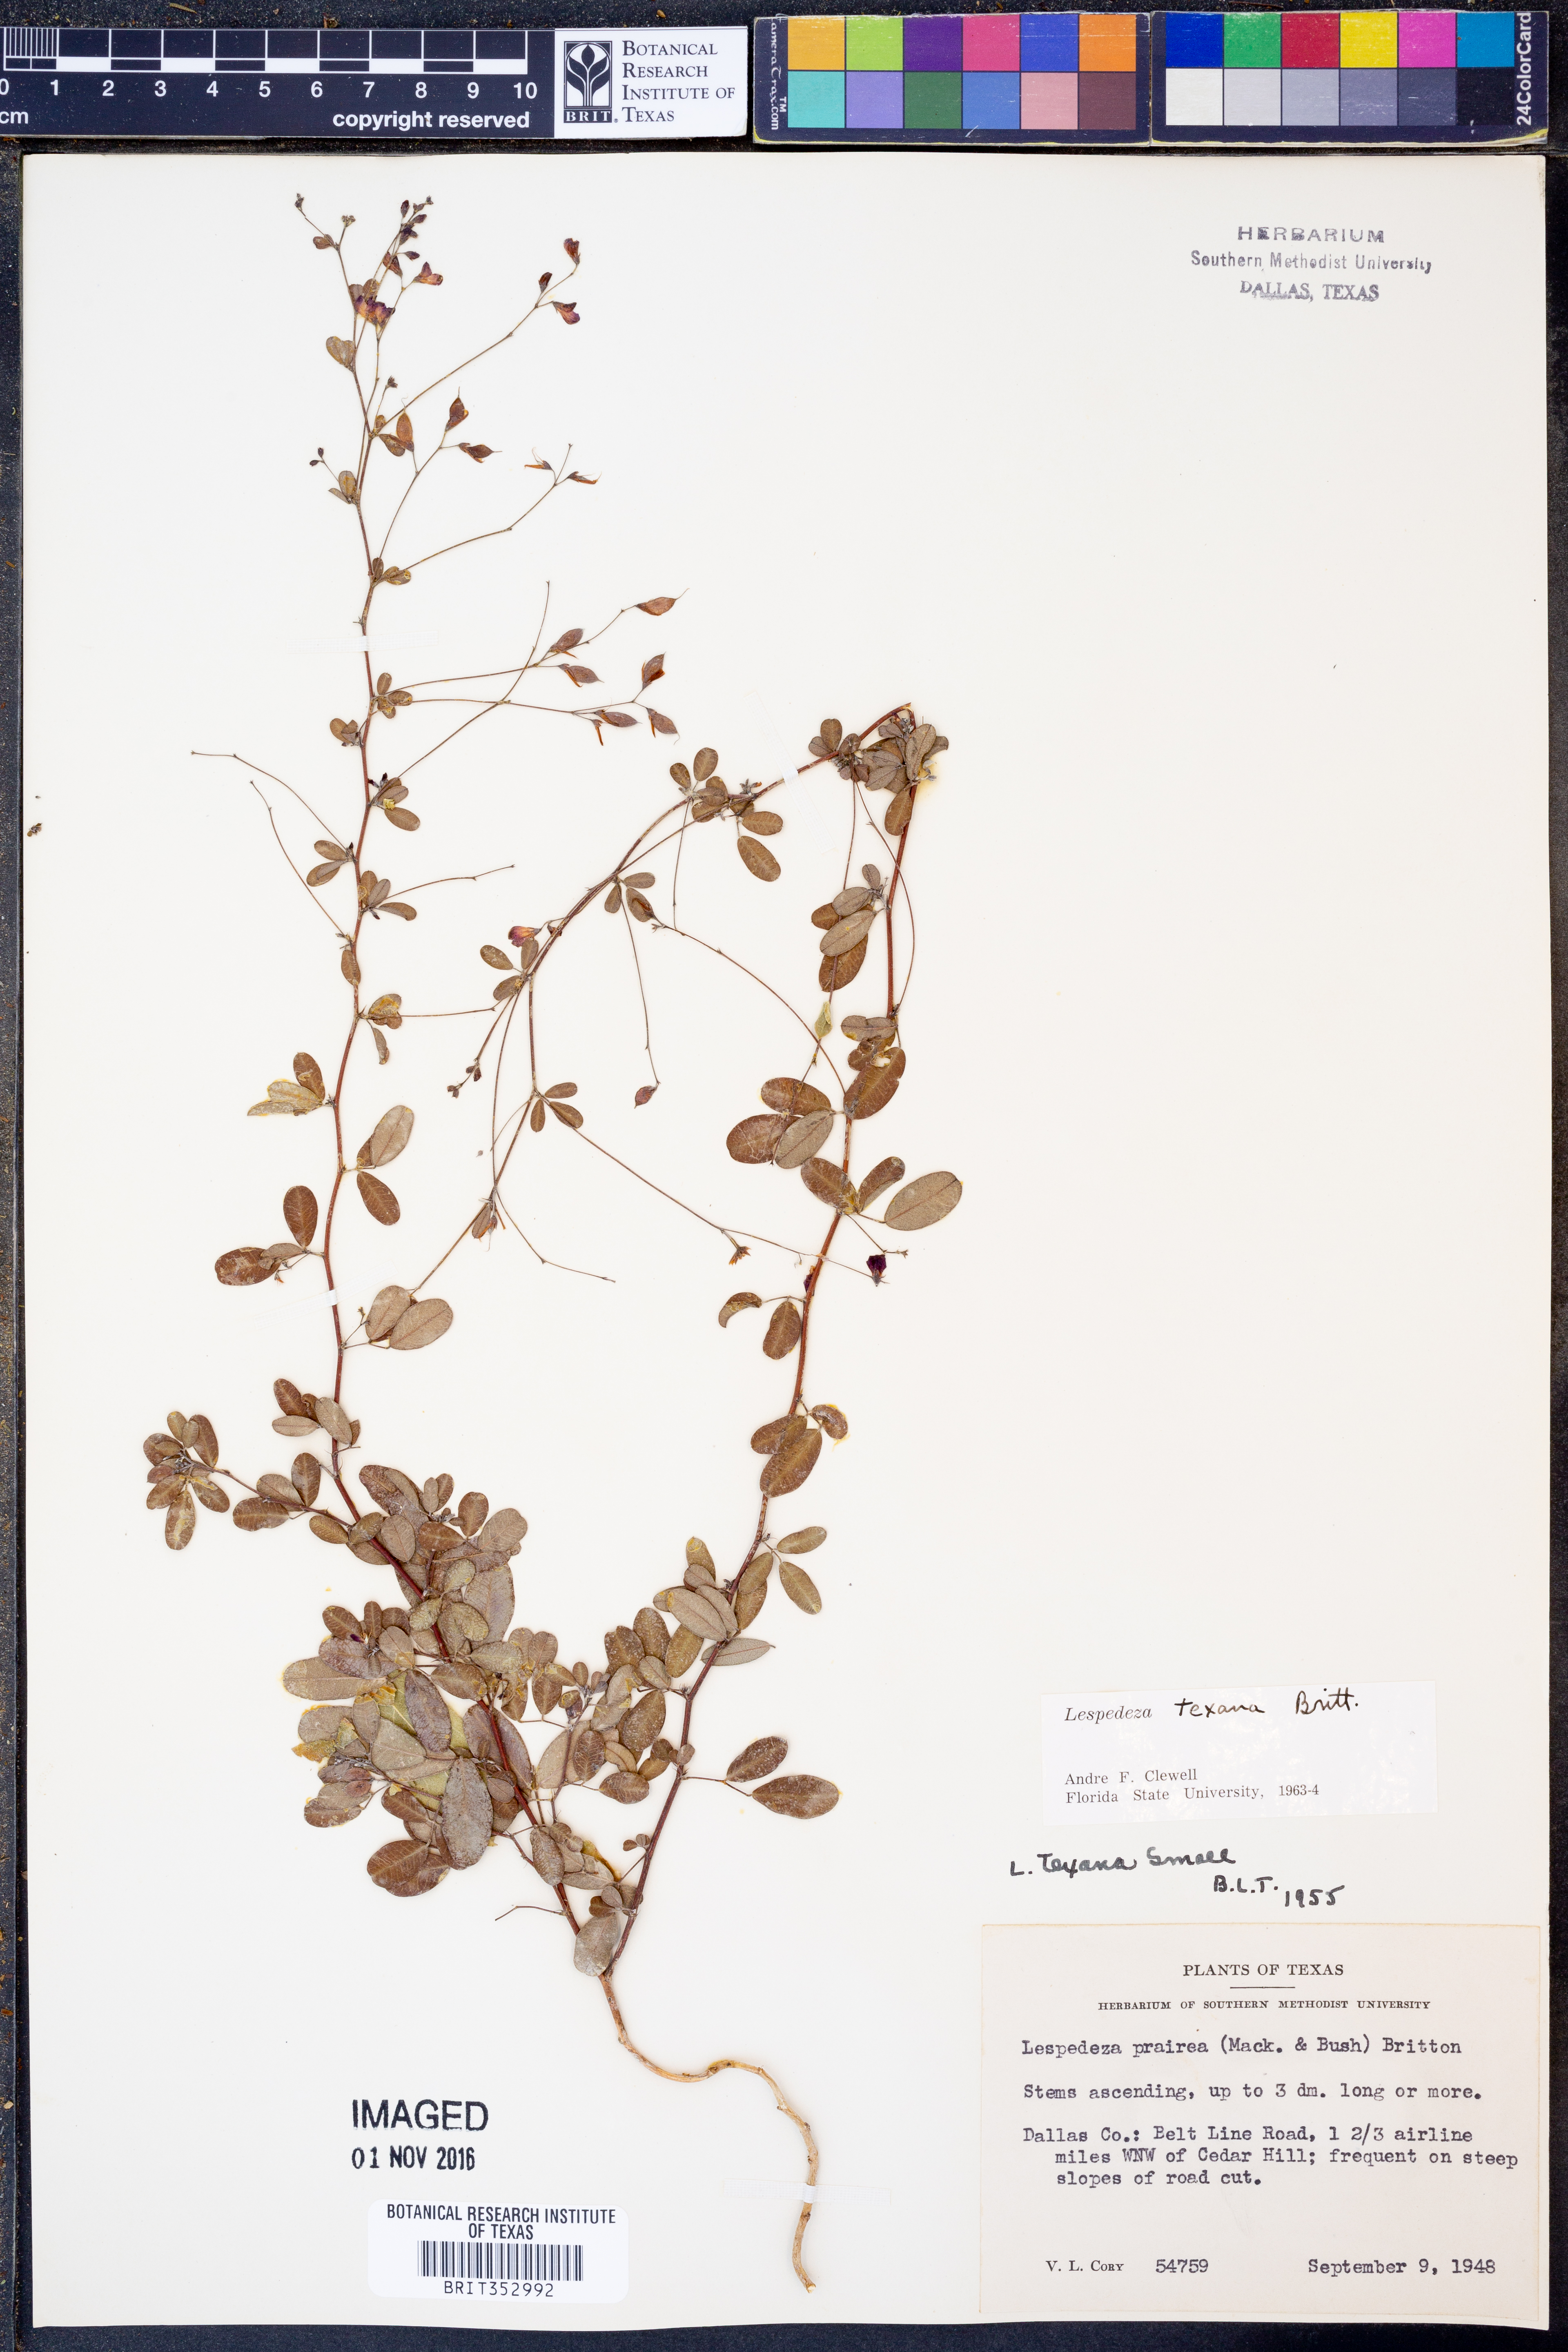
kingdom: Plantae
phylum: Tracheophyta
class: Magnoliopsida
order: Fabales
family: Fabaceae
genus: Lespedeza
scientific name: Lespedeza texana
